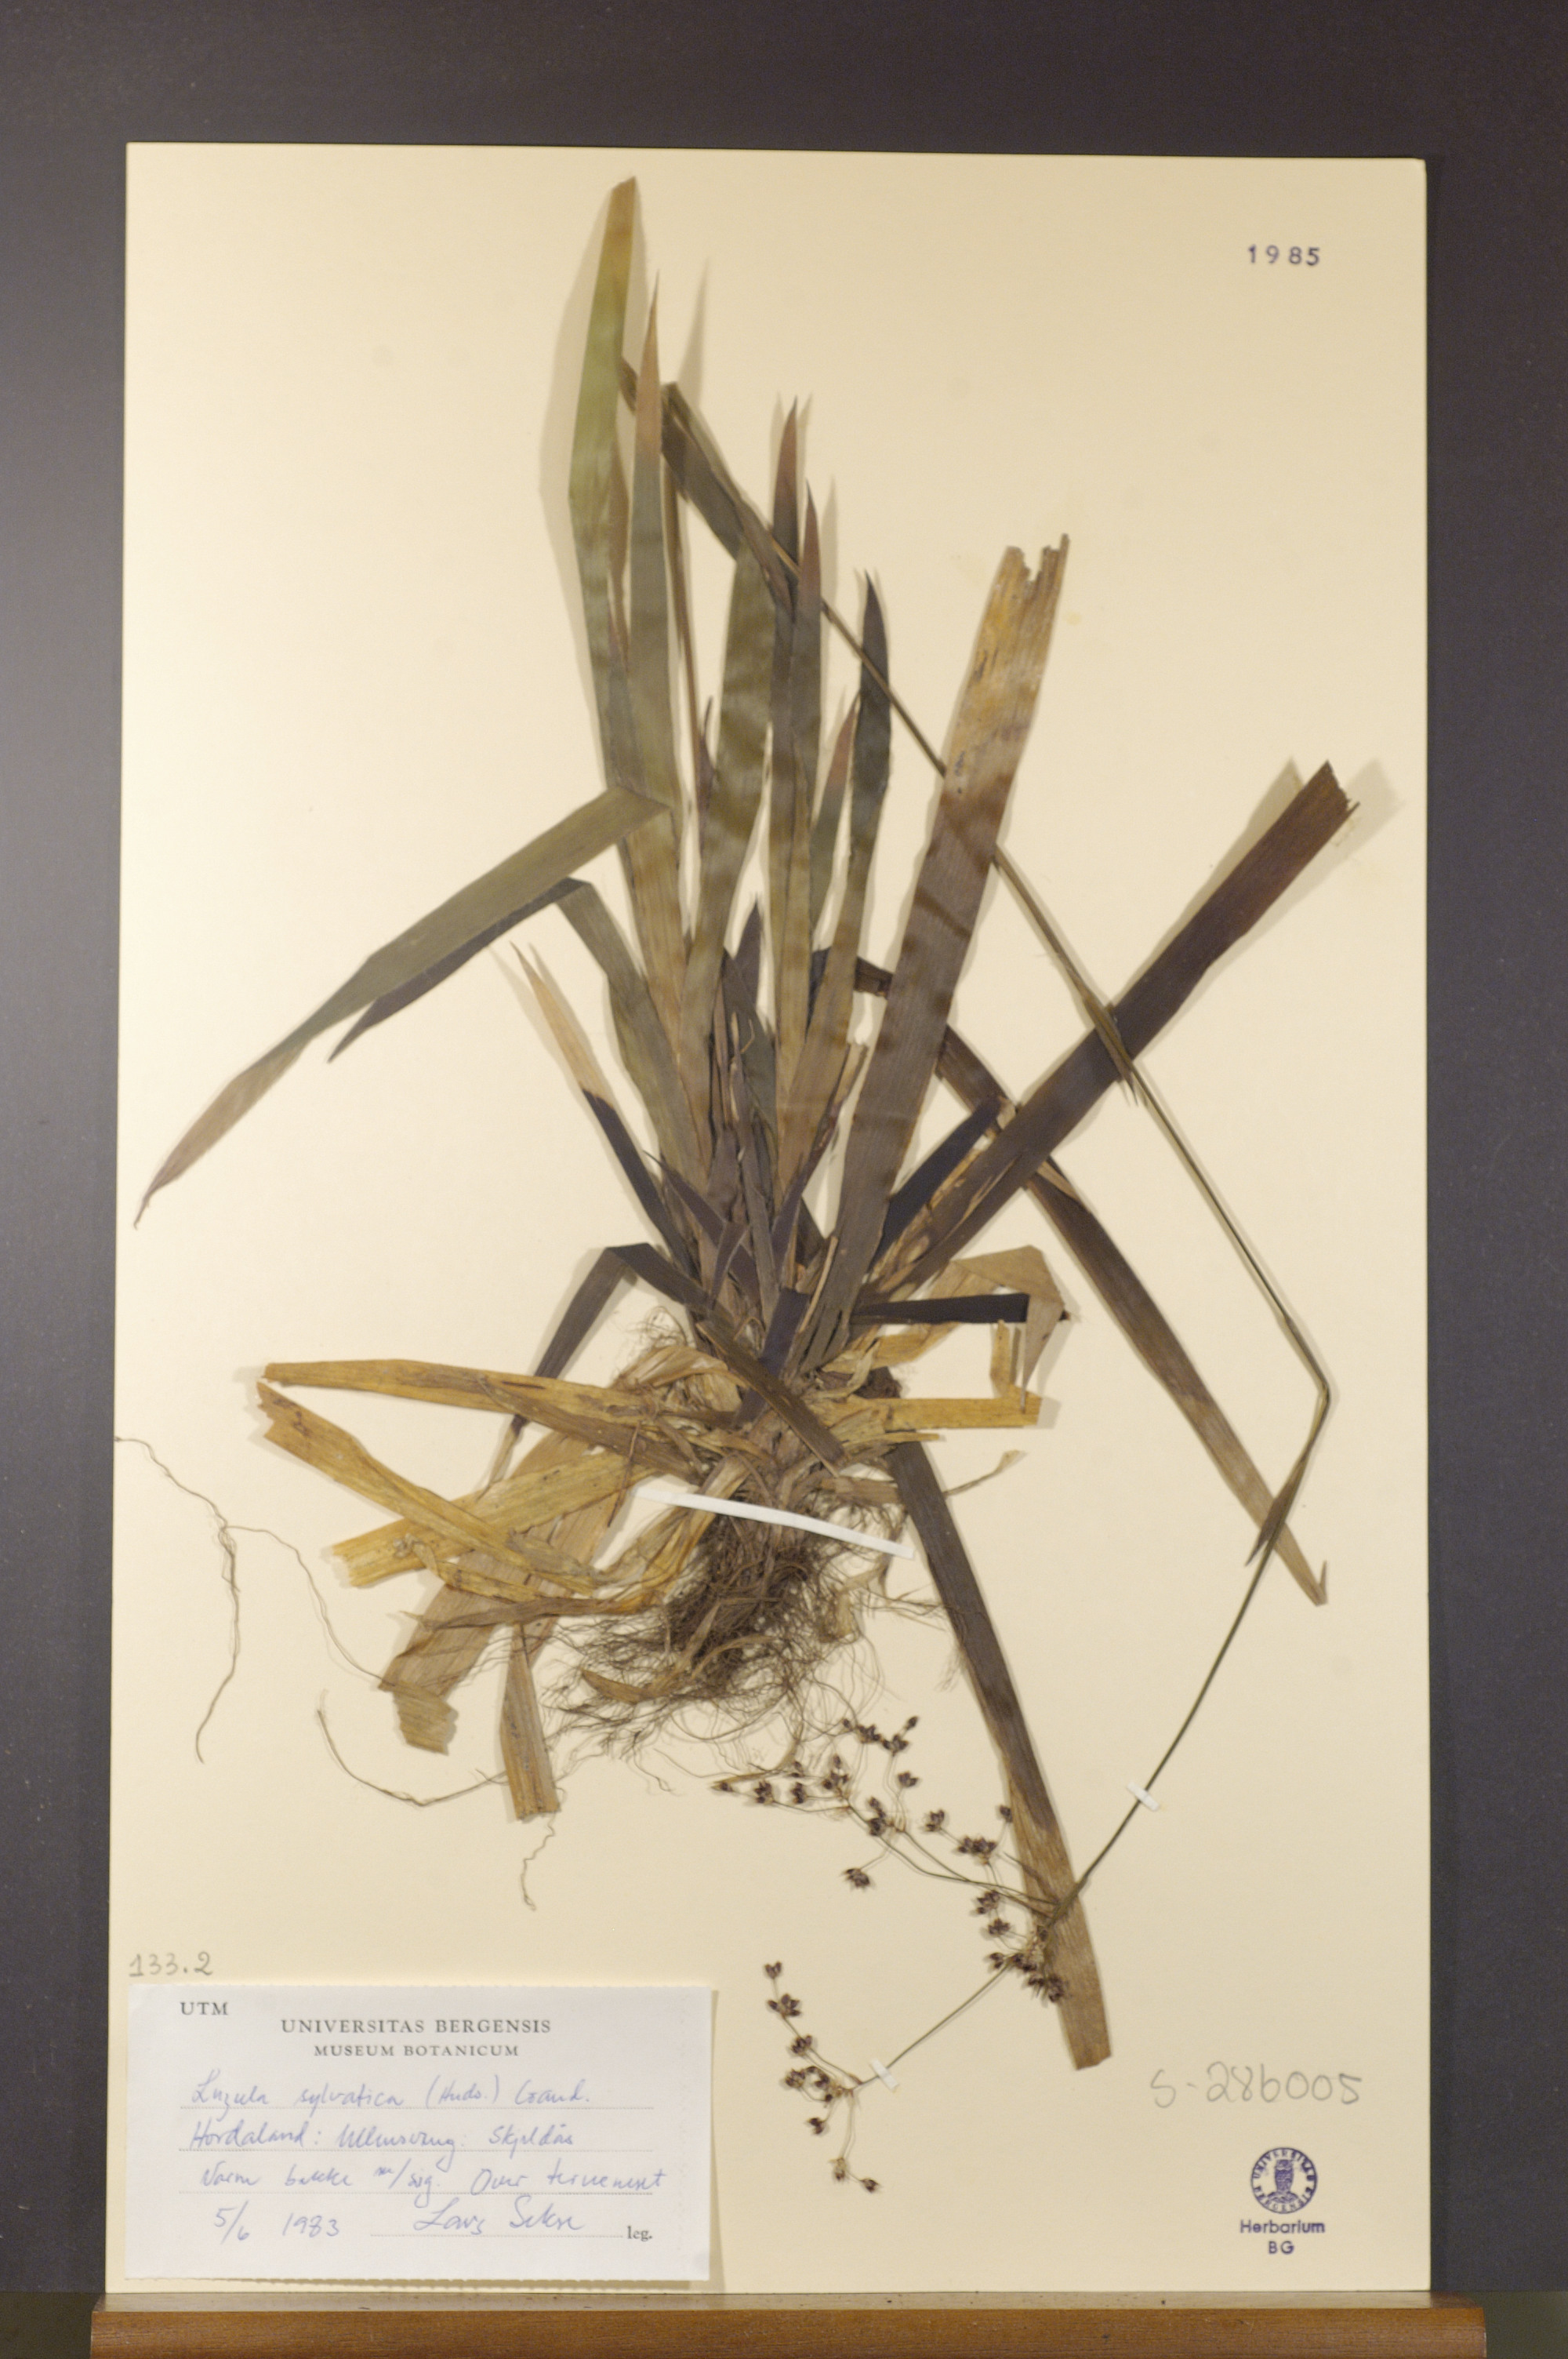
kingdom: Plantae
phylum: Tracheophyta
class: Liliopsida
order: Poales
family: Juncaceae
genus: Luzula
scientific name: Luzula sylvatica
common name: Great wood-rush
